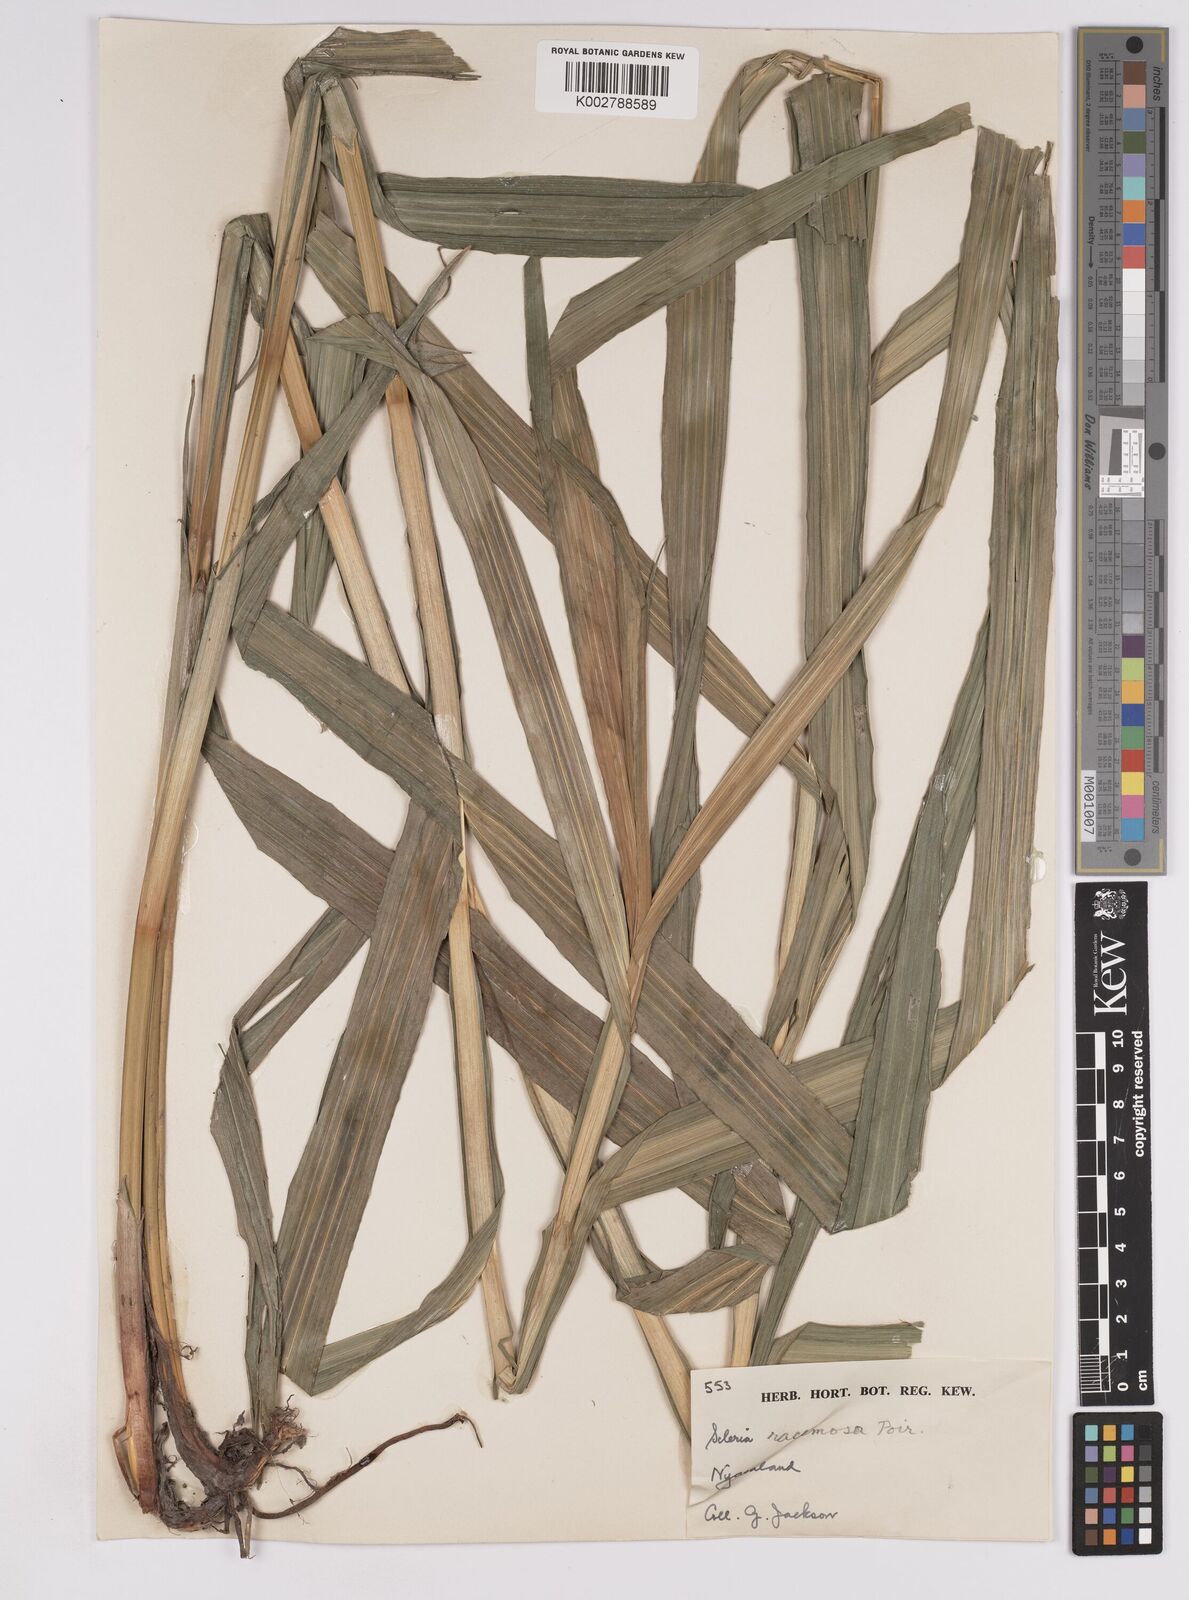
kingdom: Plantae
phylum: Tracheophyta
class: Liliopsida
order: Poales
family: Cyperaceae
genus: Scleria
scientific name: Scleria racemosa
